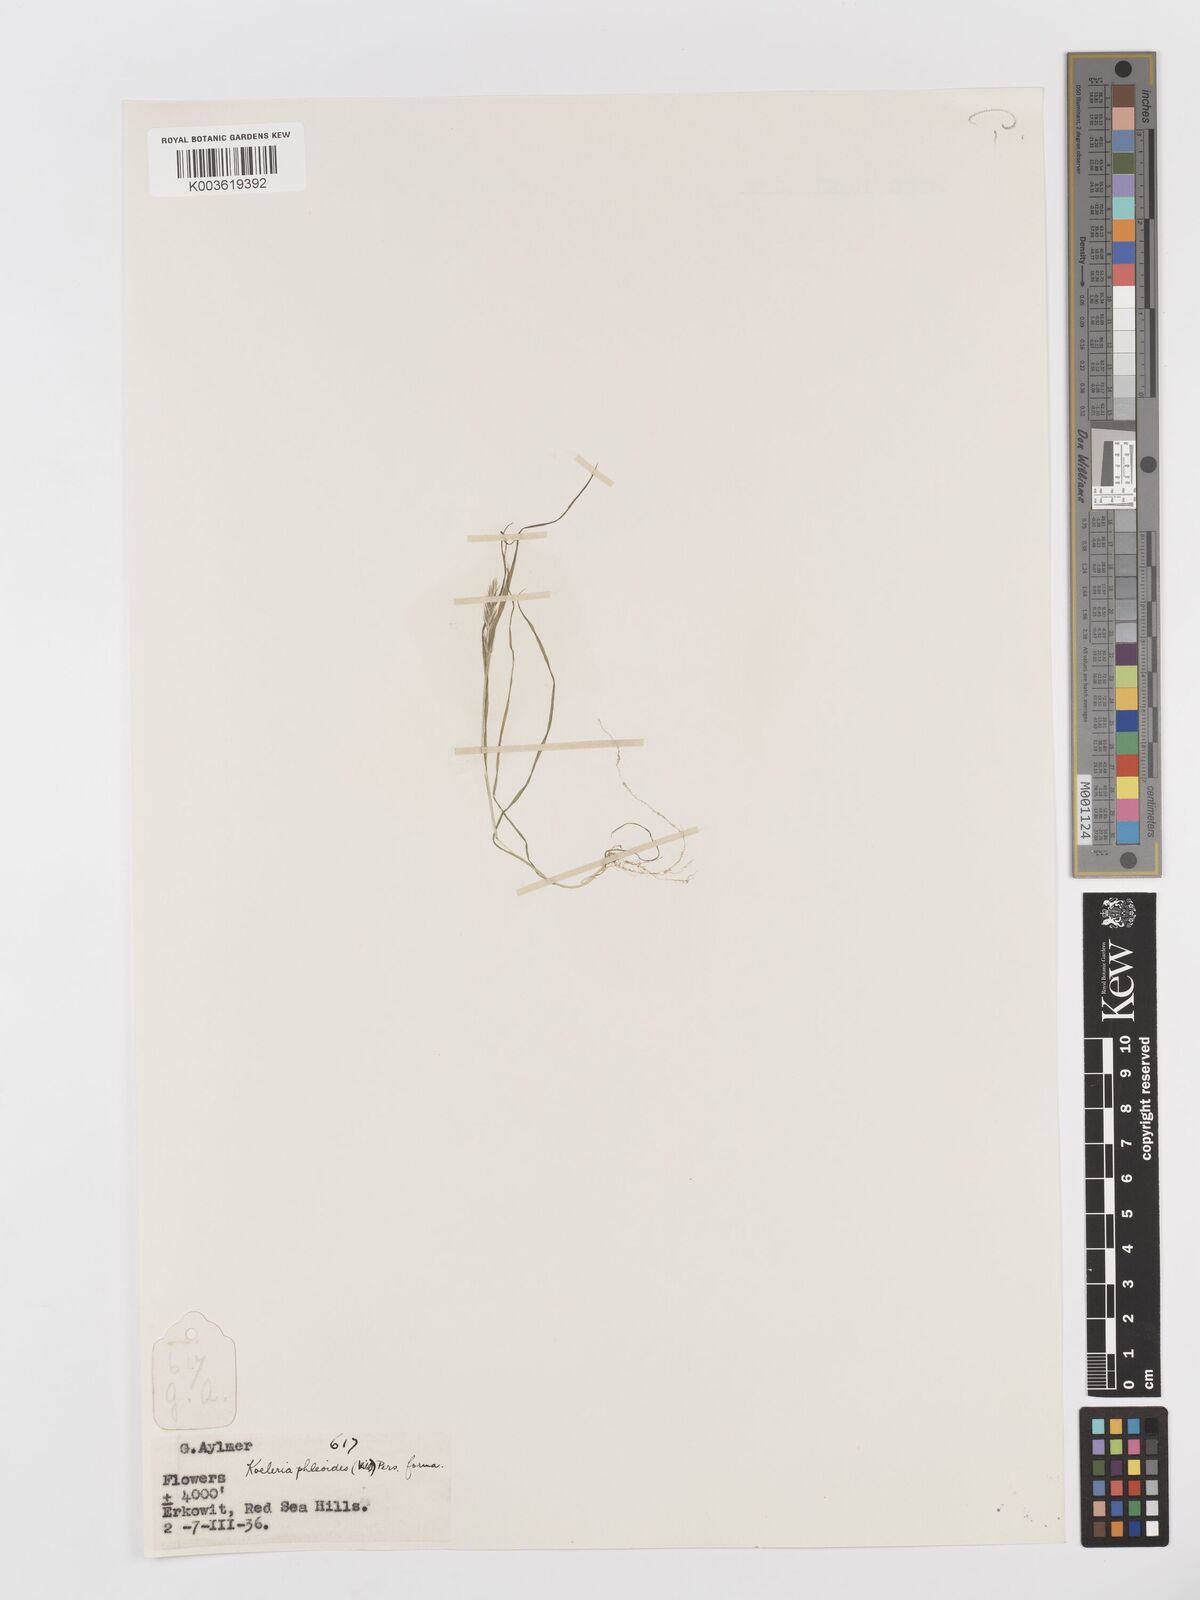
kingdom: Plantae
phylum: Tracheophyta
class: Liliopsida
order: Poales
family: Poaceae
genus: Rostraria
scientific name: Rostraria cristata
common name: Mediterranean hair-grass
